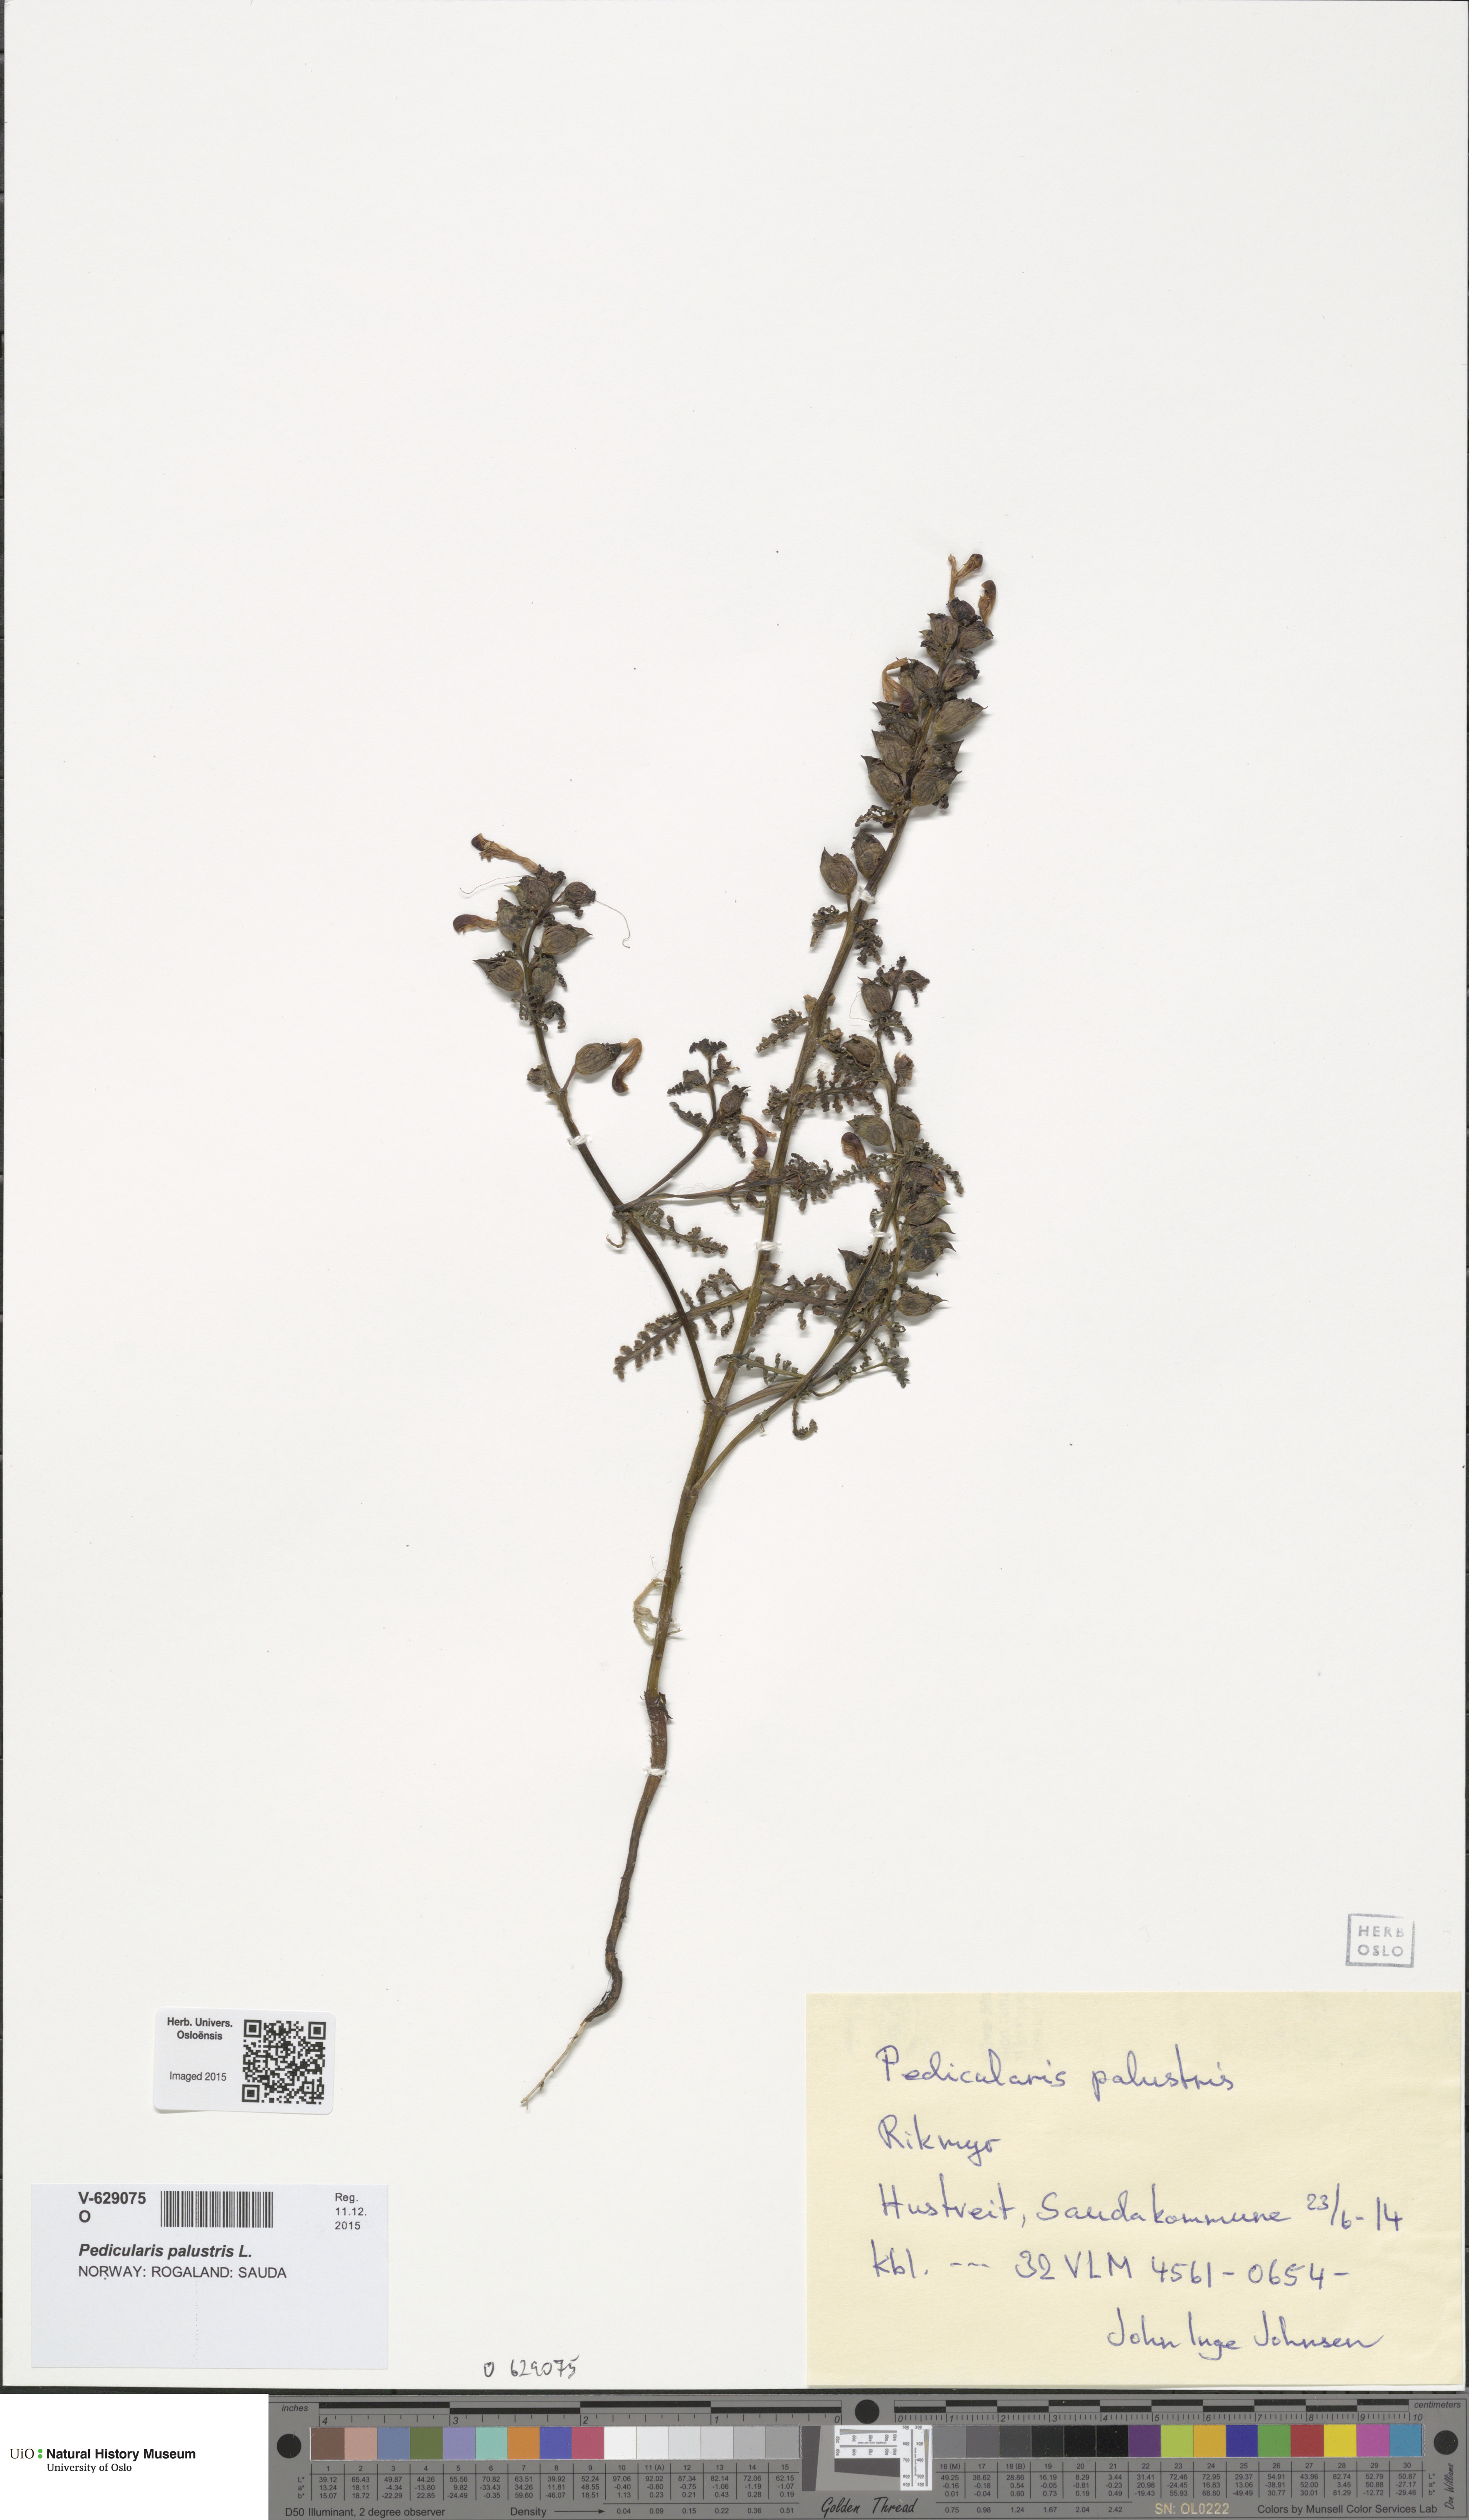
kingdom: Plantae
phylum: Tracheophyta
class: Magnoliopsida
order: Lamiales
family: Orobanchaceae
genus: Pedicularis
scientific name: Pedicularis palustris
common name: Marsh lousewort
